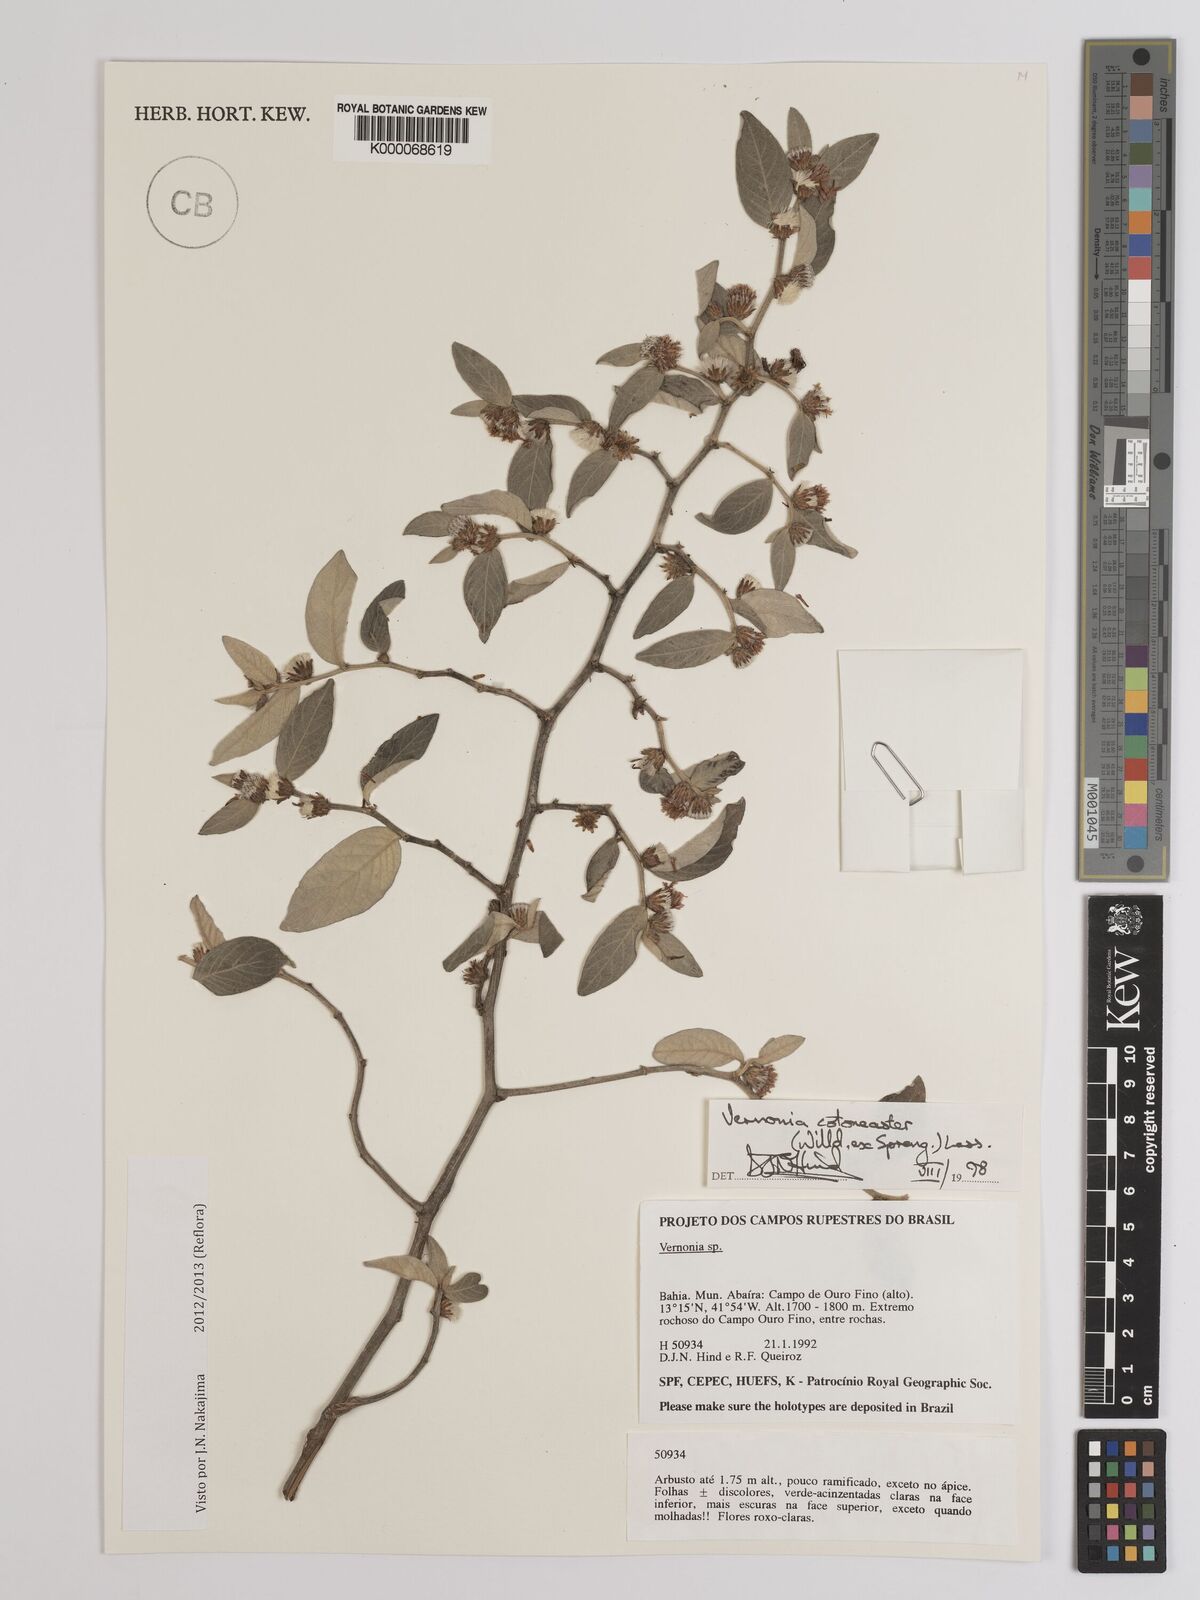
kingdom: Plantae
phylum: Tracheophyta
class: Magnoliopsida
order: Asterales
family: Asteraceae
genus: Lepidaploa
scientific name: Lepidaploa cotoneaster
